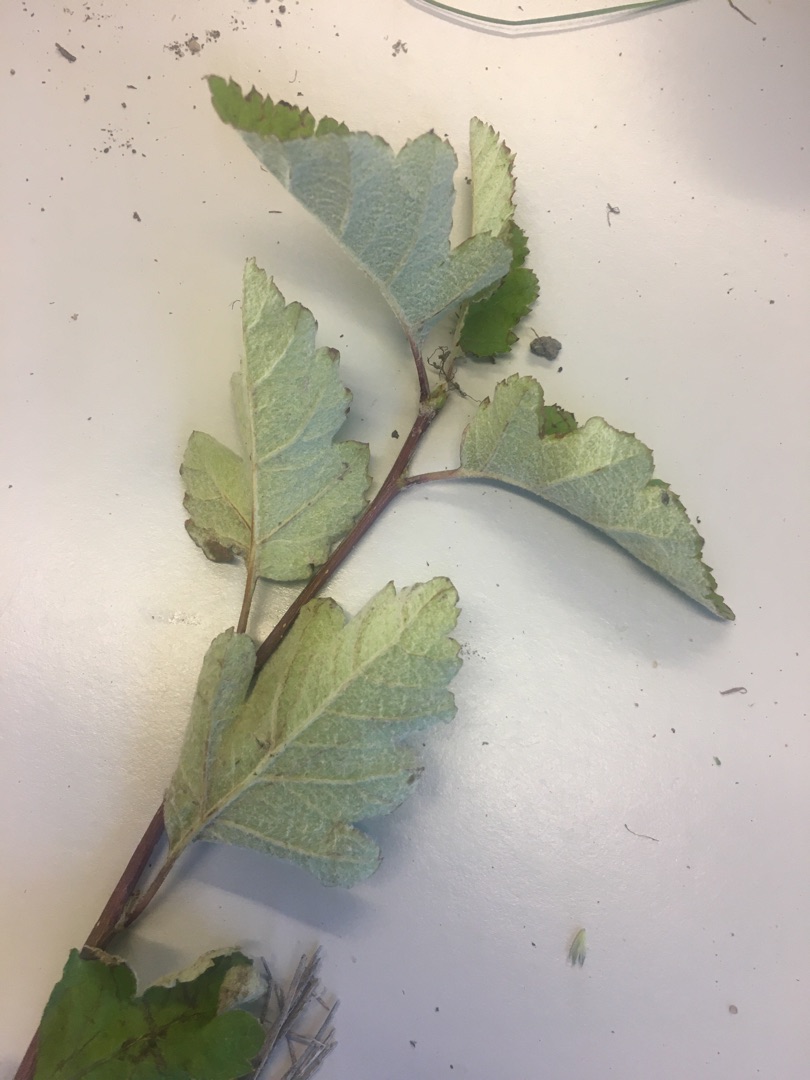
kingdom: Plantae
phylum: Tracheophyta
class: Magnoliopsida
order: Rosales
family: Rosaceae
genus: Scandosorbus
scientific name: Scandosorbus intermedia
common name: Selje-røn
